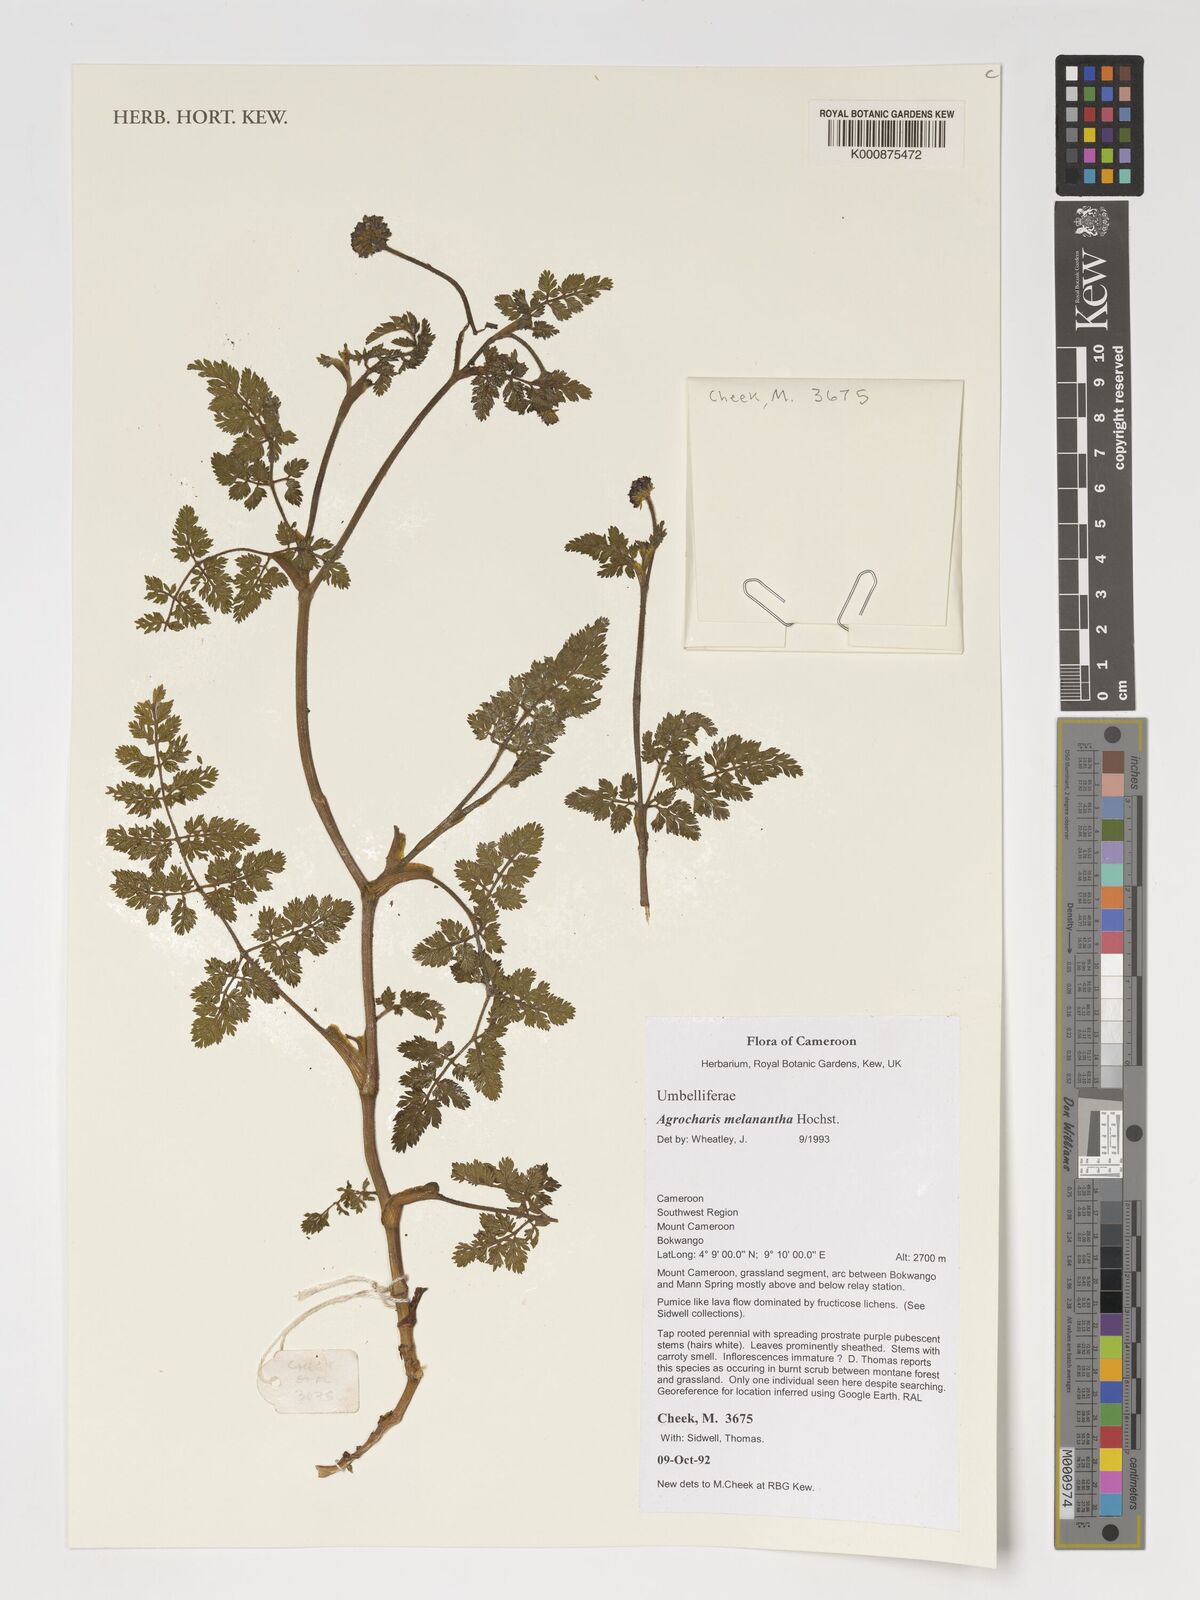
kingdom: Plantae
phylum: Tracheophyta
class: Magnoliopsida
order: Apiales
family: Apiaceae
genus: Daucus
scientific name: Daucus melananthus
